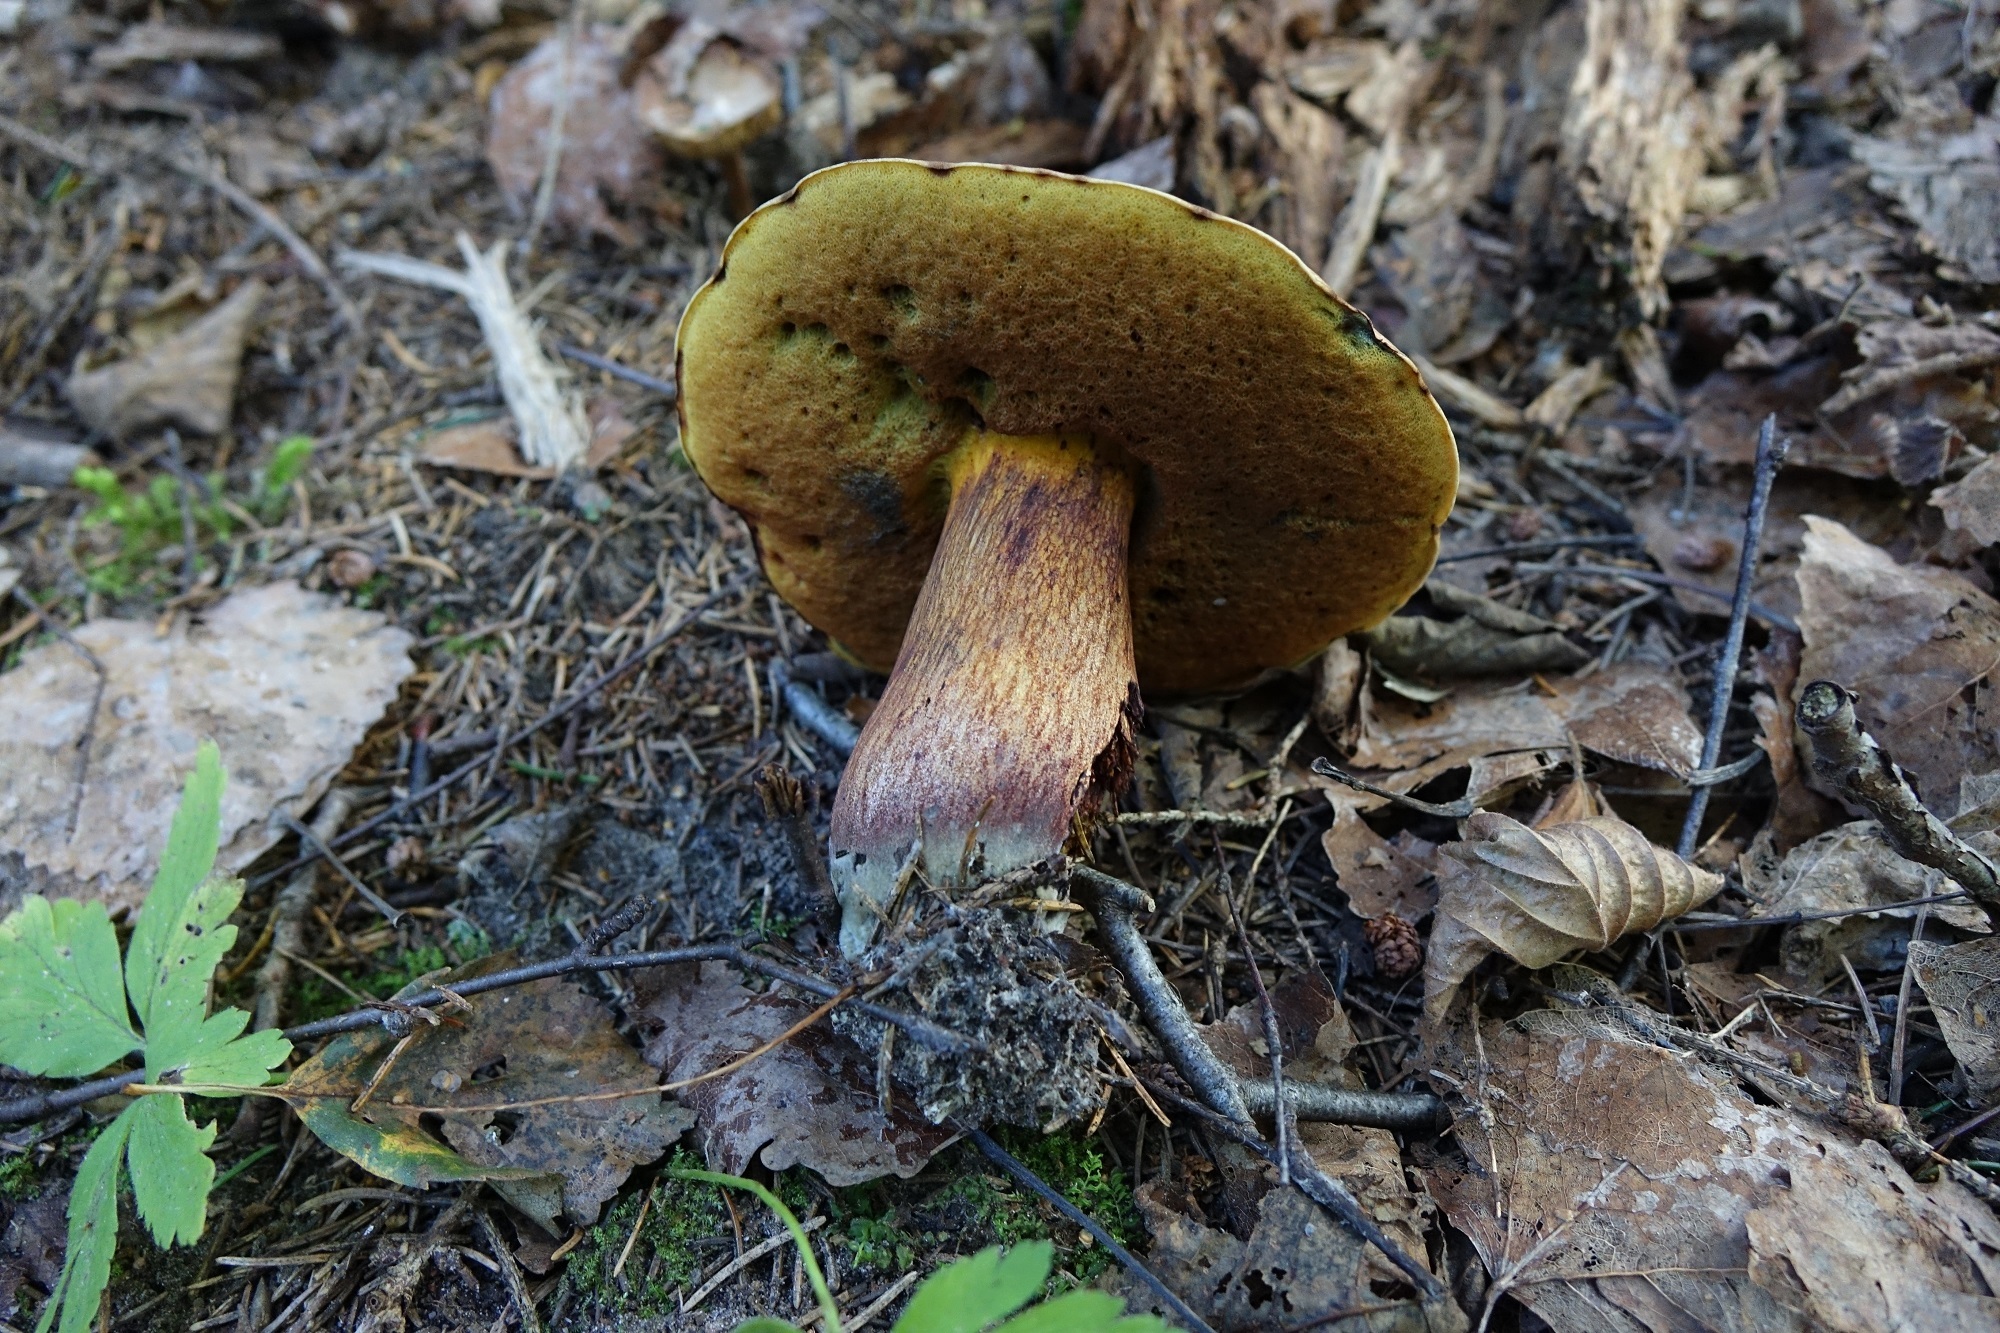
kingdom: Fungi
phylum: Basidiomycota
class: Agaricomycetes
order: Boletales
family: Boletaceae
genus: Suillellus
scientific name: Suillellus luridus
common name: Lurid bolete
